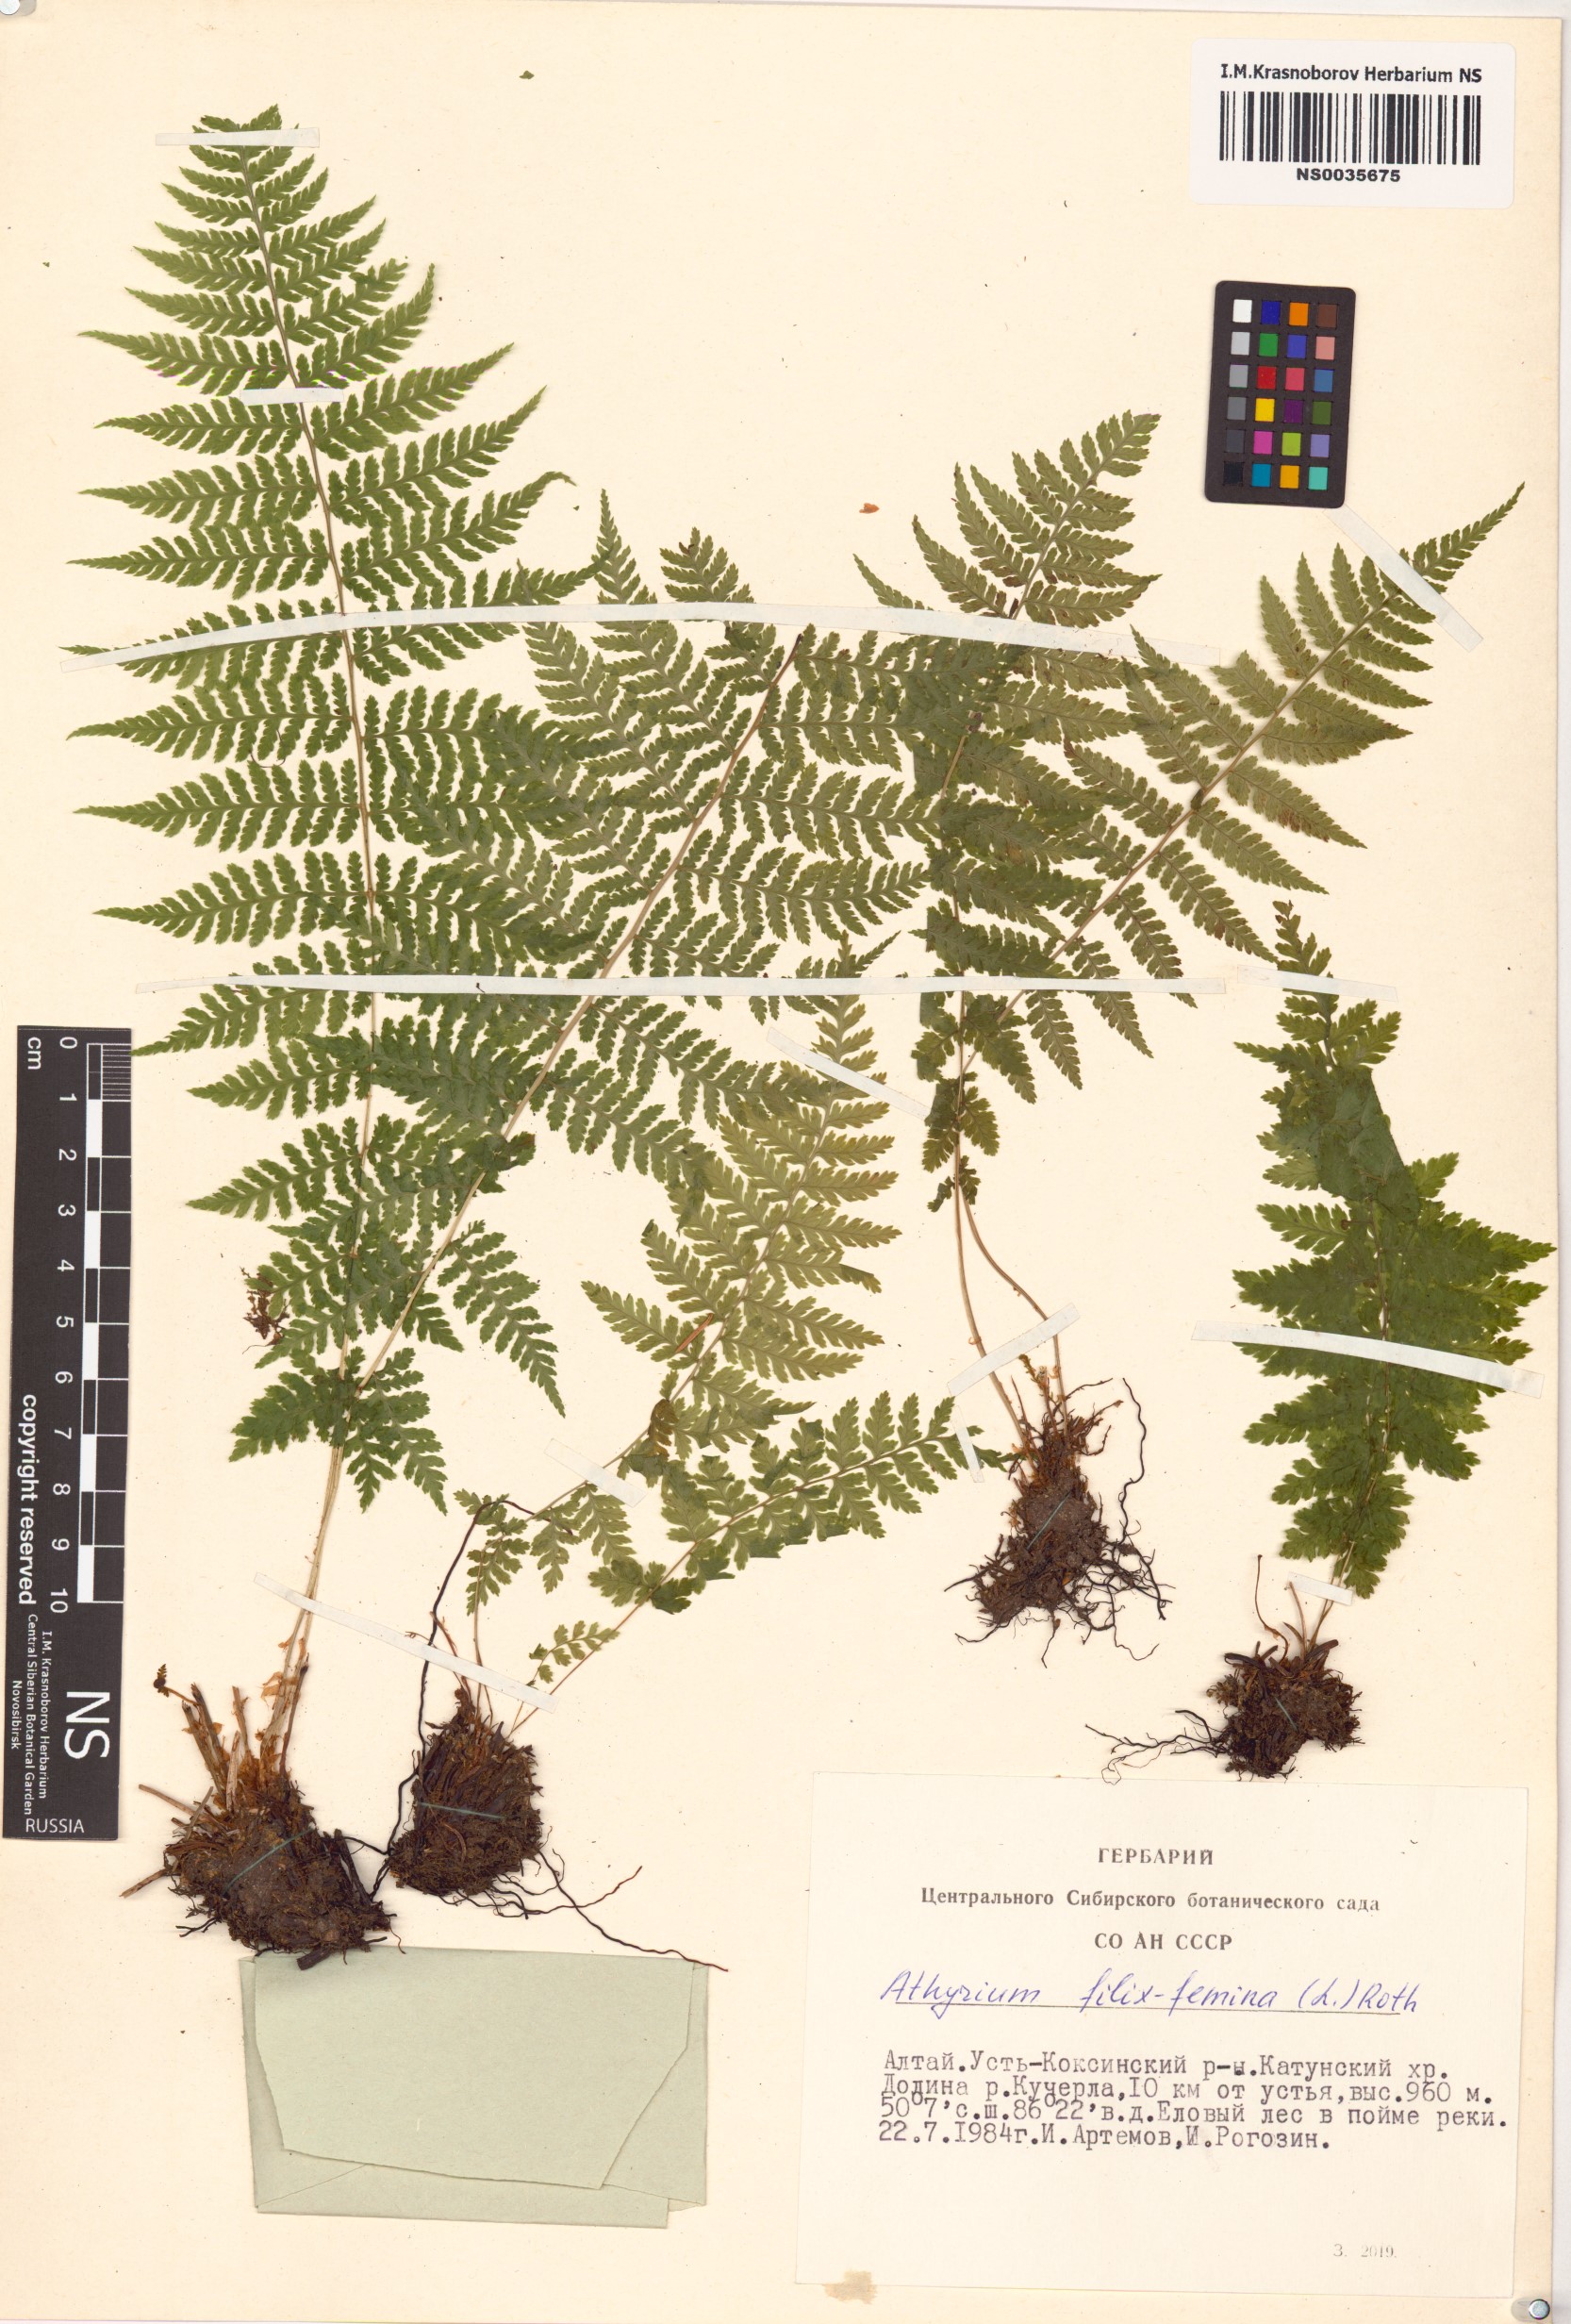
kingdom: Plantae
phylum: Tracheophyta
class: Polypodiopsida
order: Polypodiales
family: Athyriaceae
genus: Athyrium
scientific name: Athyrium filix-femina
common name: Lady fern
